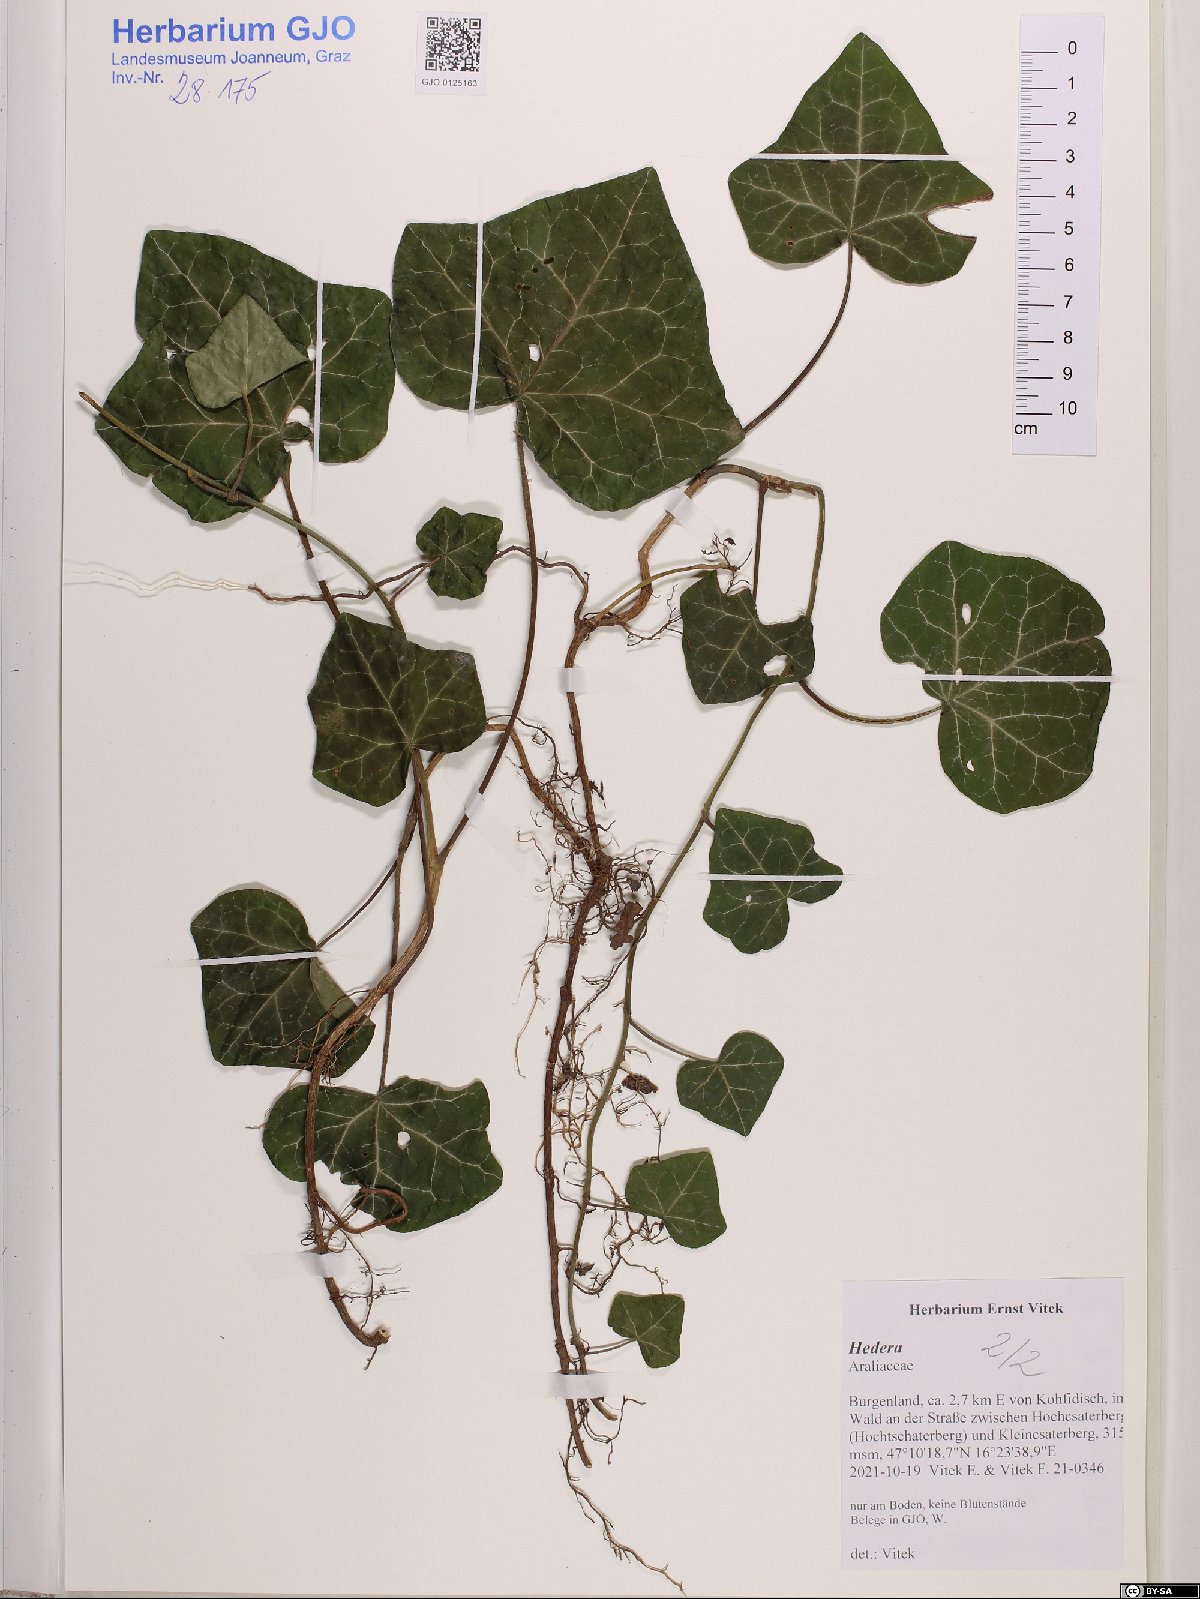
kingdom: Plantae
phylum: Tracheophyta
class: Magnoliopsida
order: Apiales
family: Araliaceae
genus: Hedera
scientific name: Hedera
